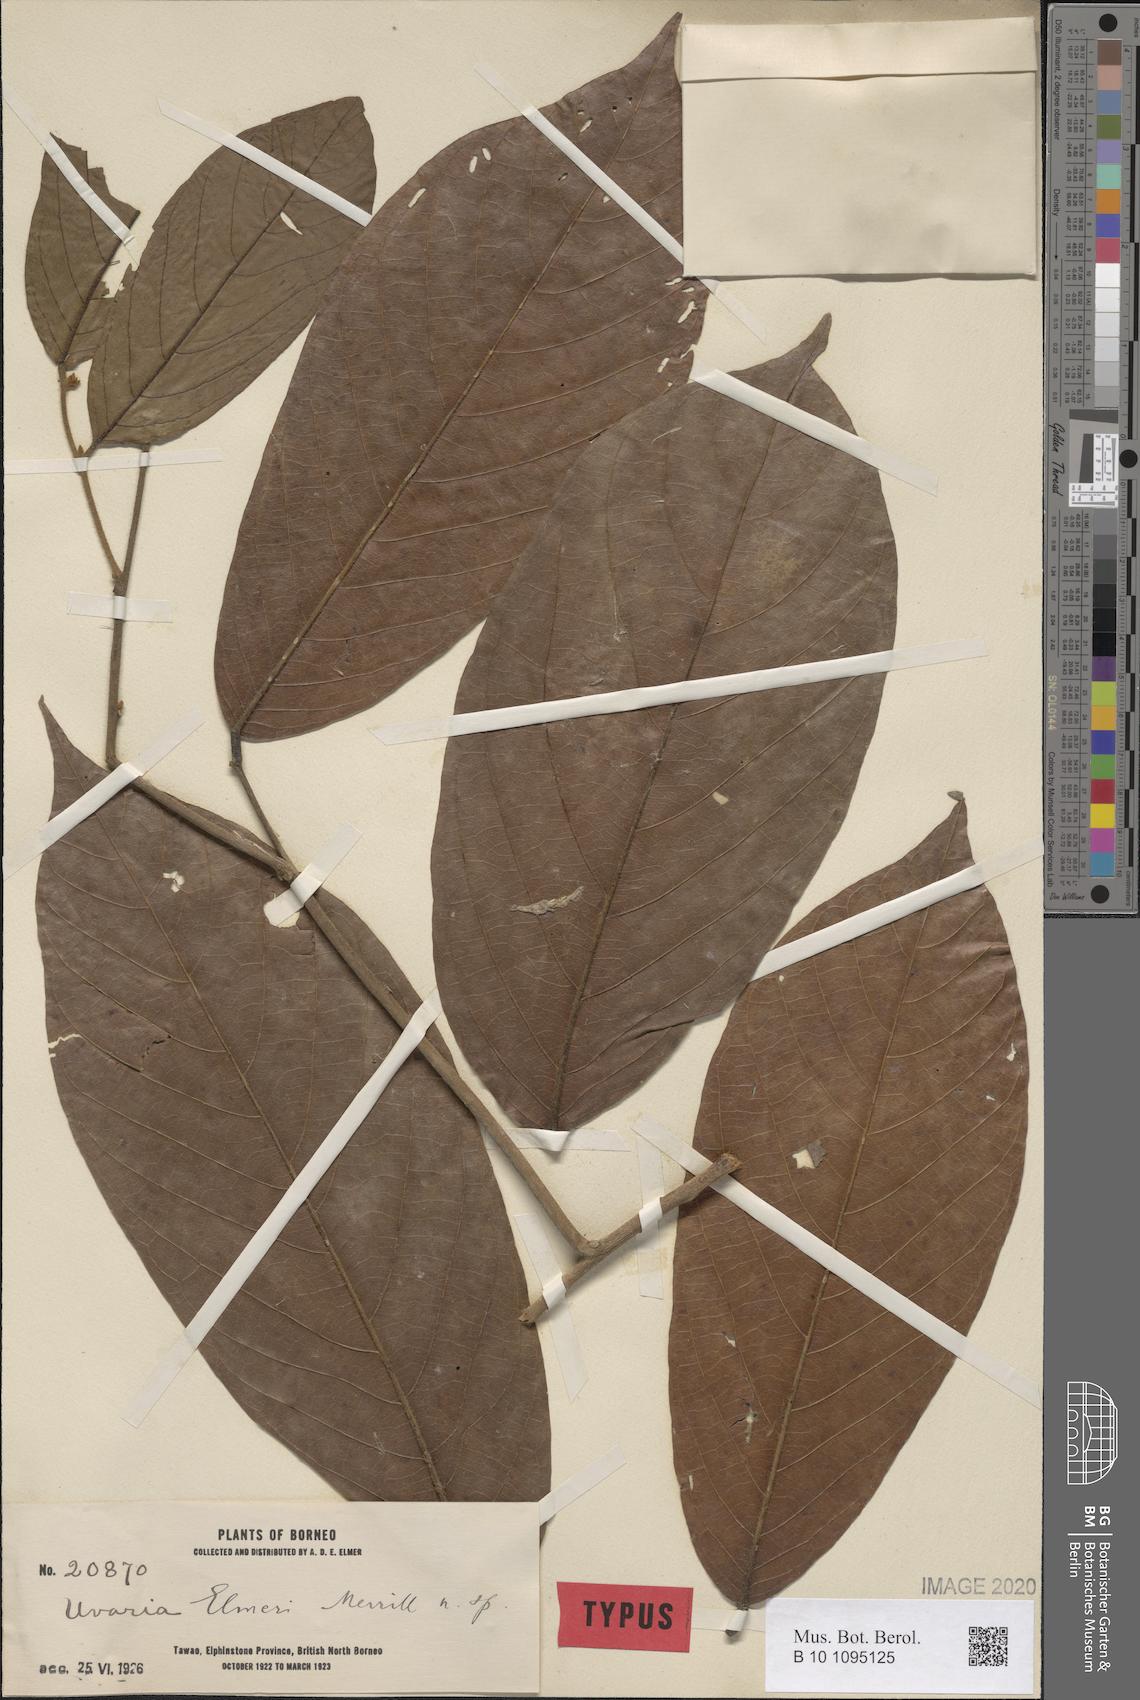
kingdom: Plantae
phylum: Tracheophyta
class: Magnoliopsida
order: Magnoliales
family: Annonaceae
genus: Uvaria
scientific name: Uvaria monticola
